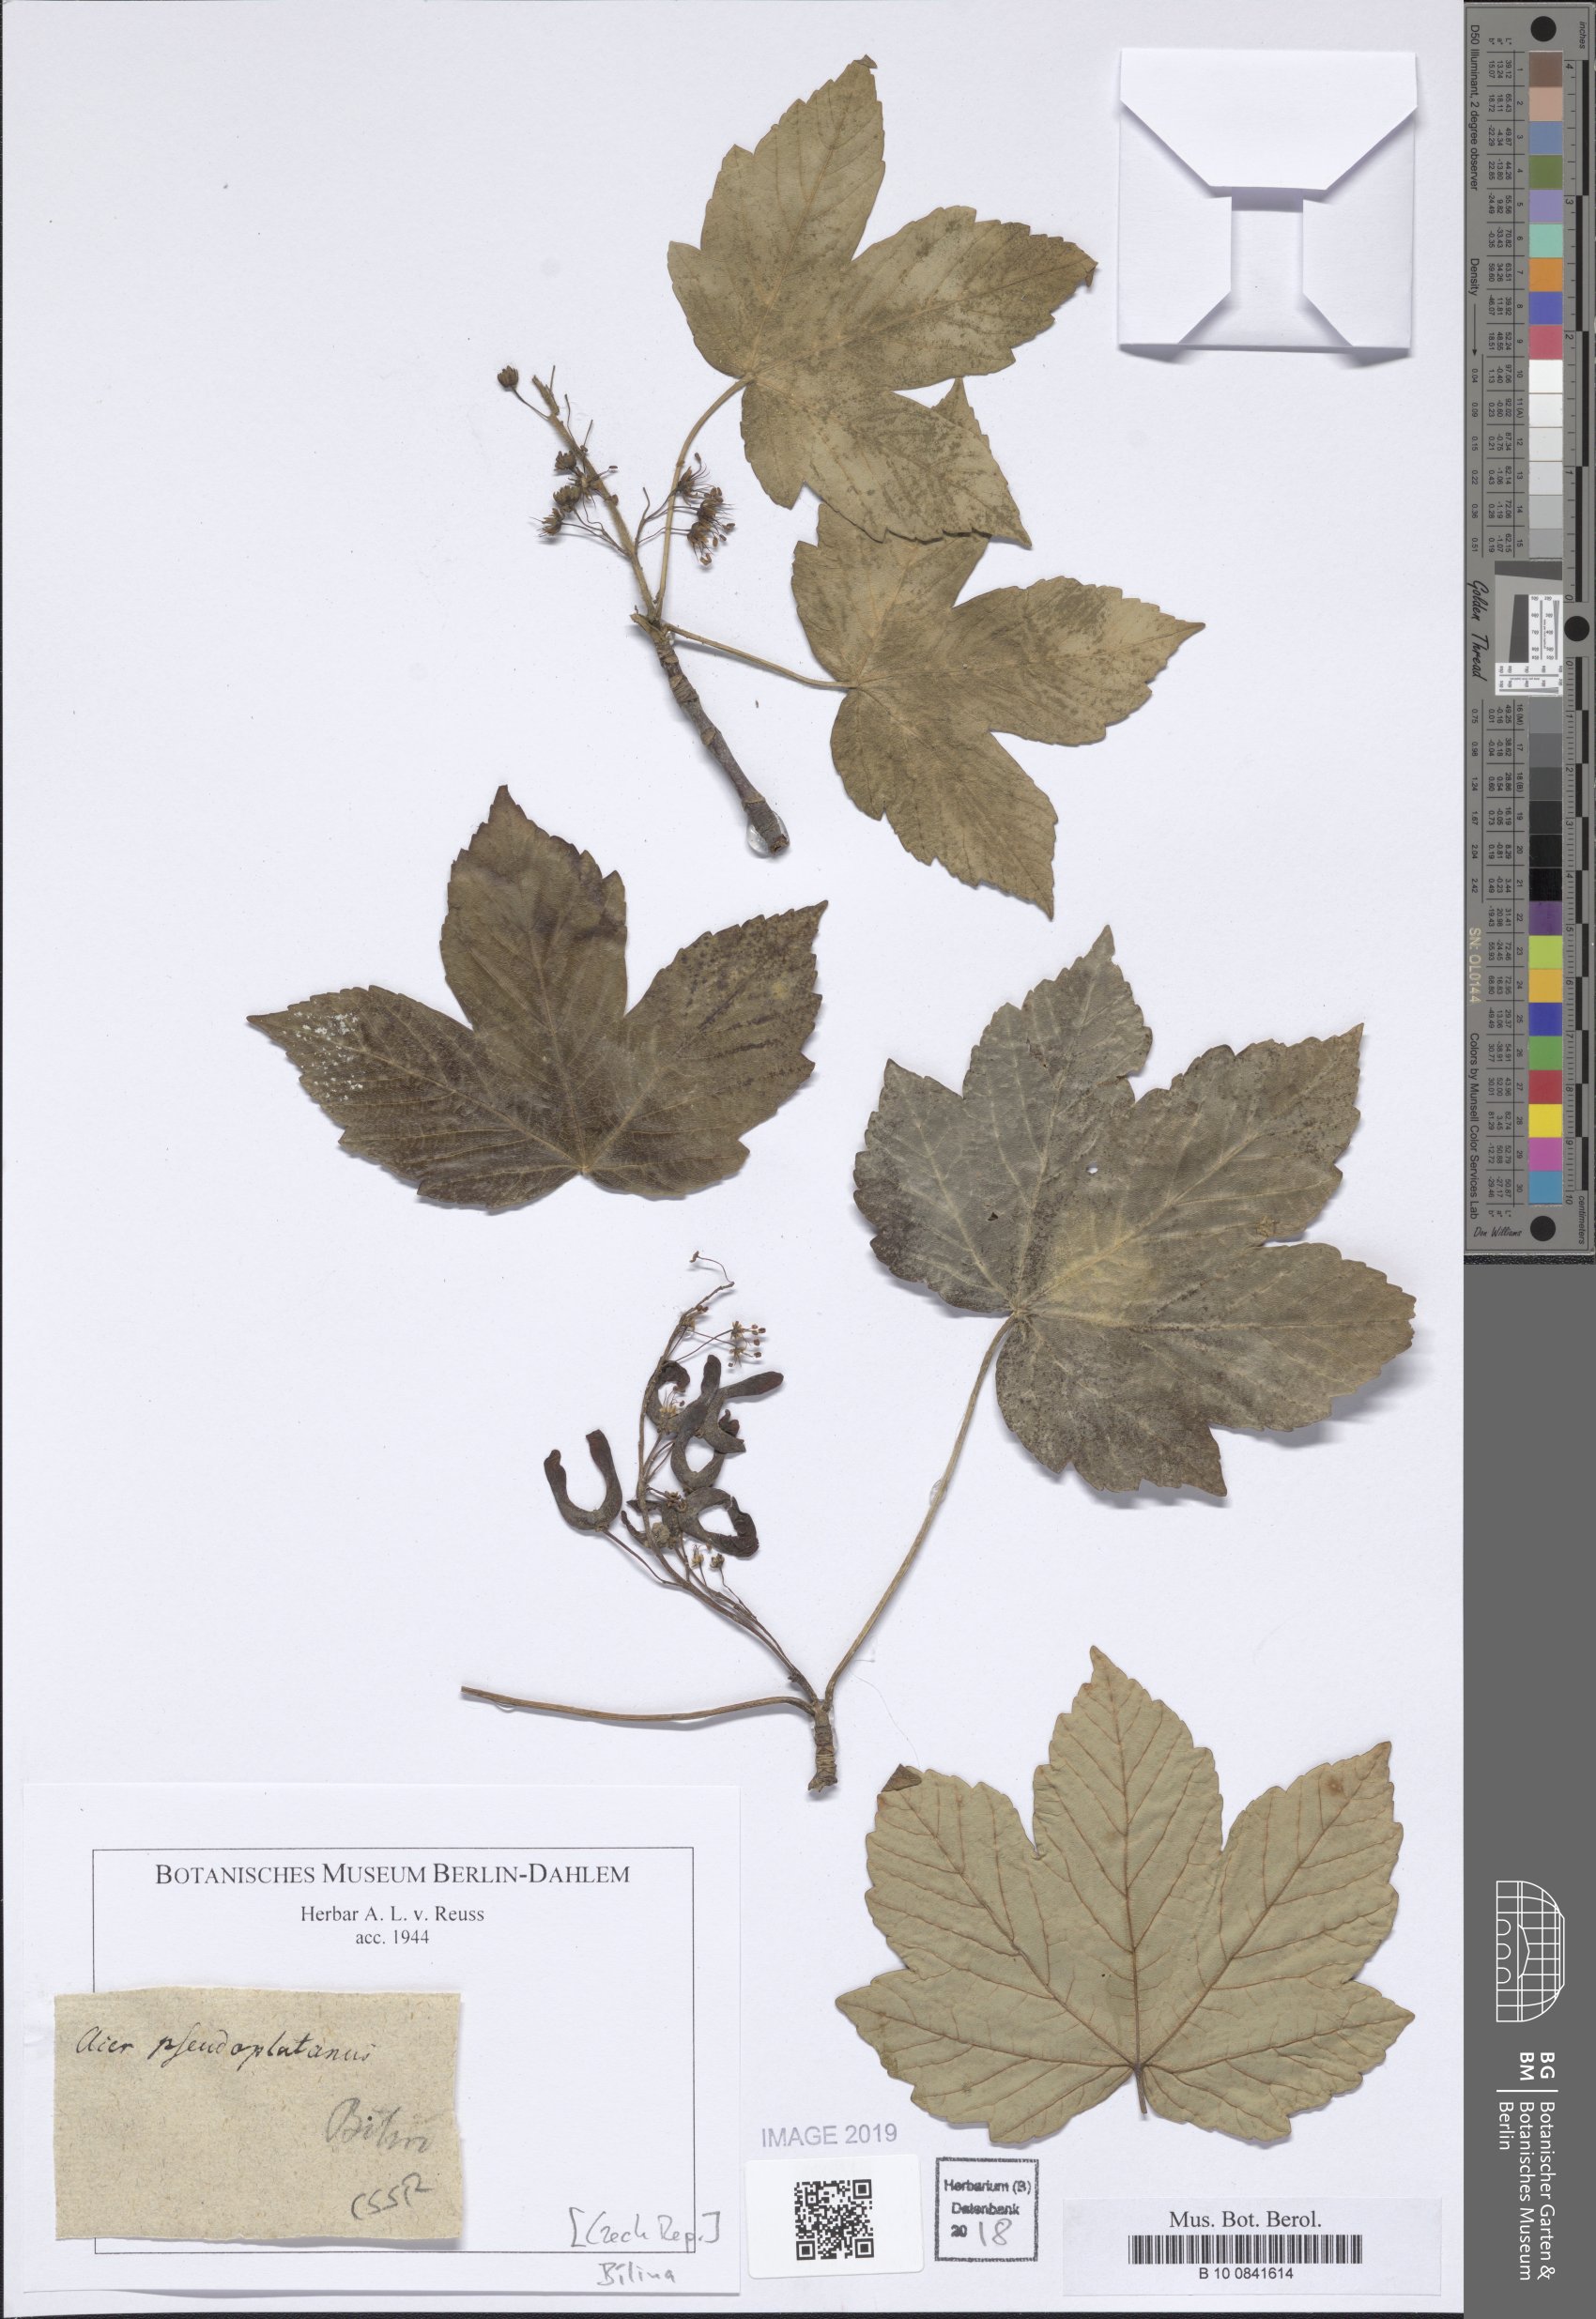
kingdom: Plantae
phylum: Tracheophyta
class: Magnoliopsida
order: Sapindales
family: Sapindaceae
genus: Acer
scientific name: Acer pseudoplatanus
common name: Sycamore
